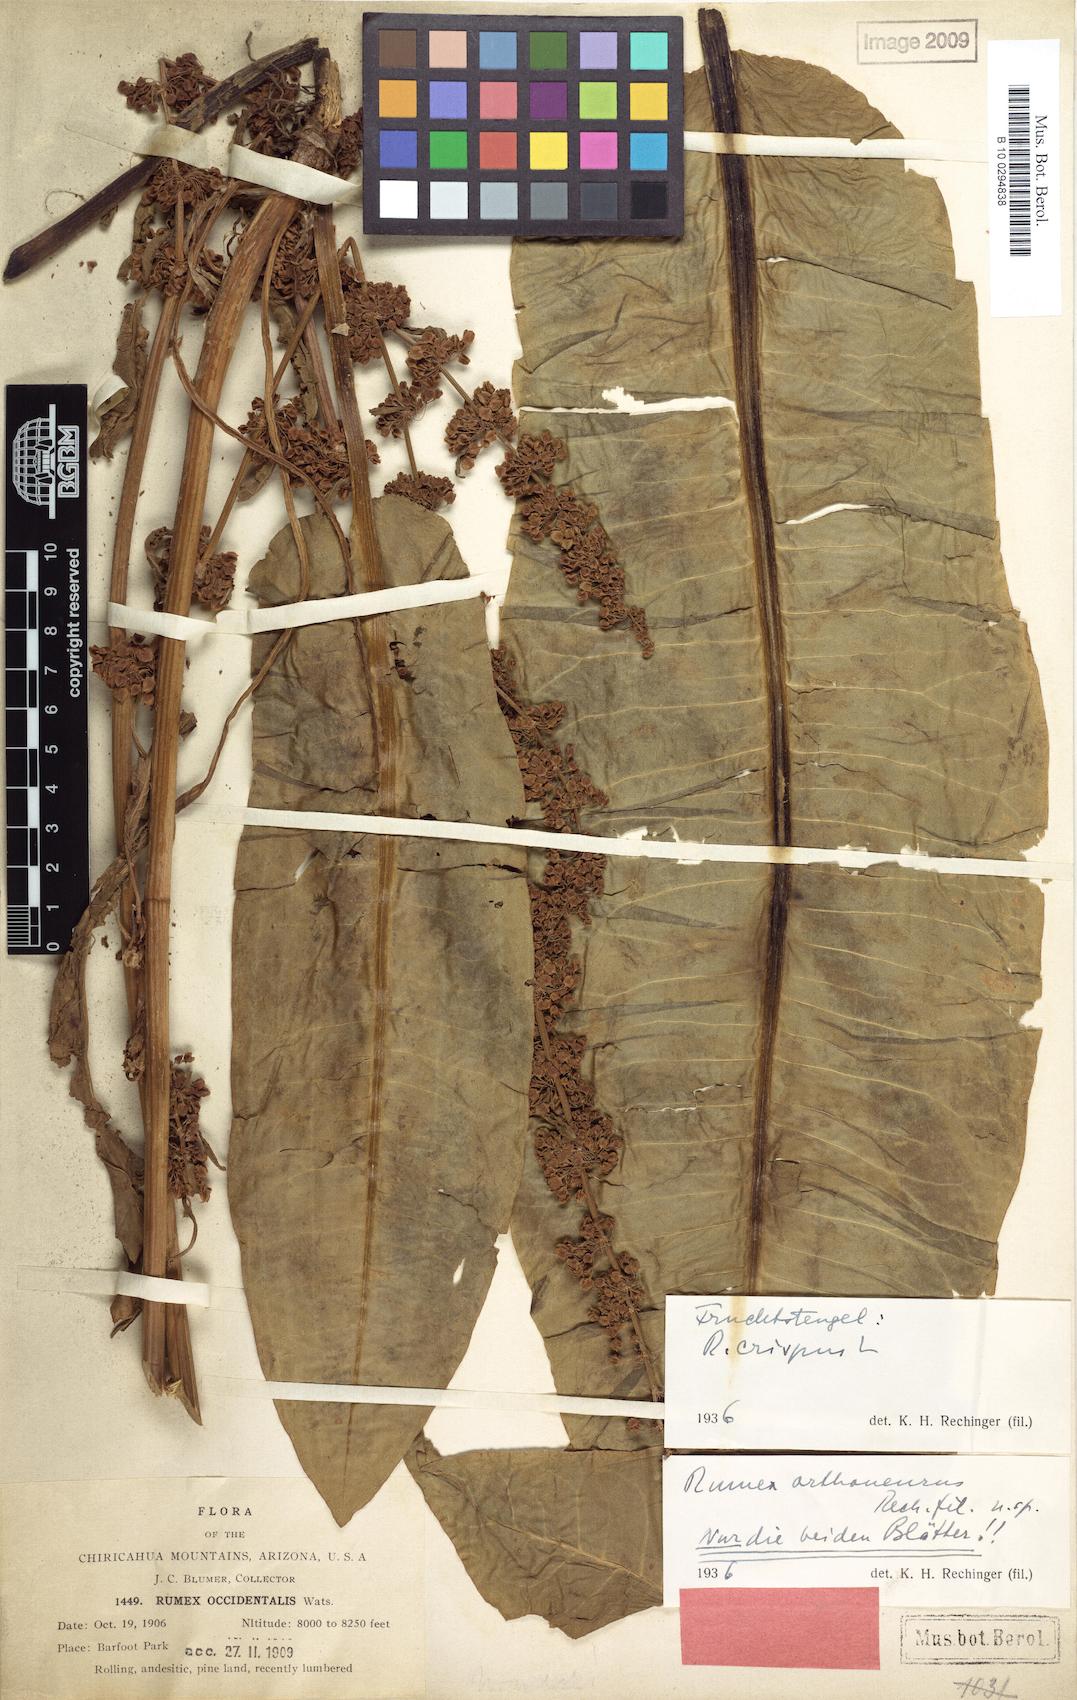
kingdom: Plantae
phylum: Tracheophyta
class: Magnoliopsida
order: Caryophyllales
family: Polygonaceae
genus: Rumex
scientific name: Rumex orthoneurus
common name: Chiricahua dock
